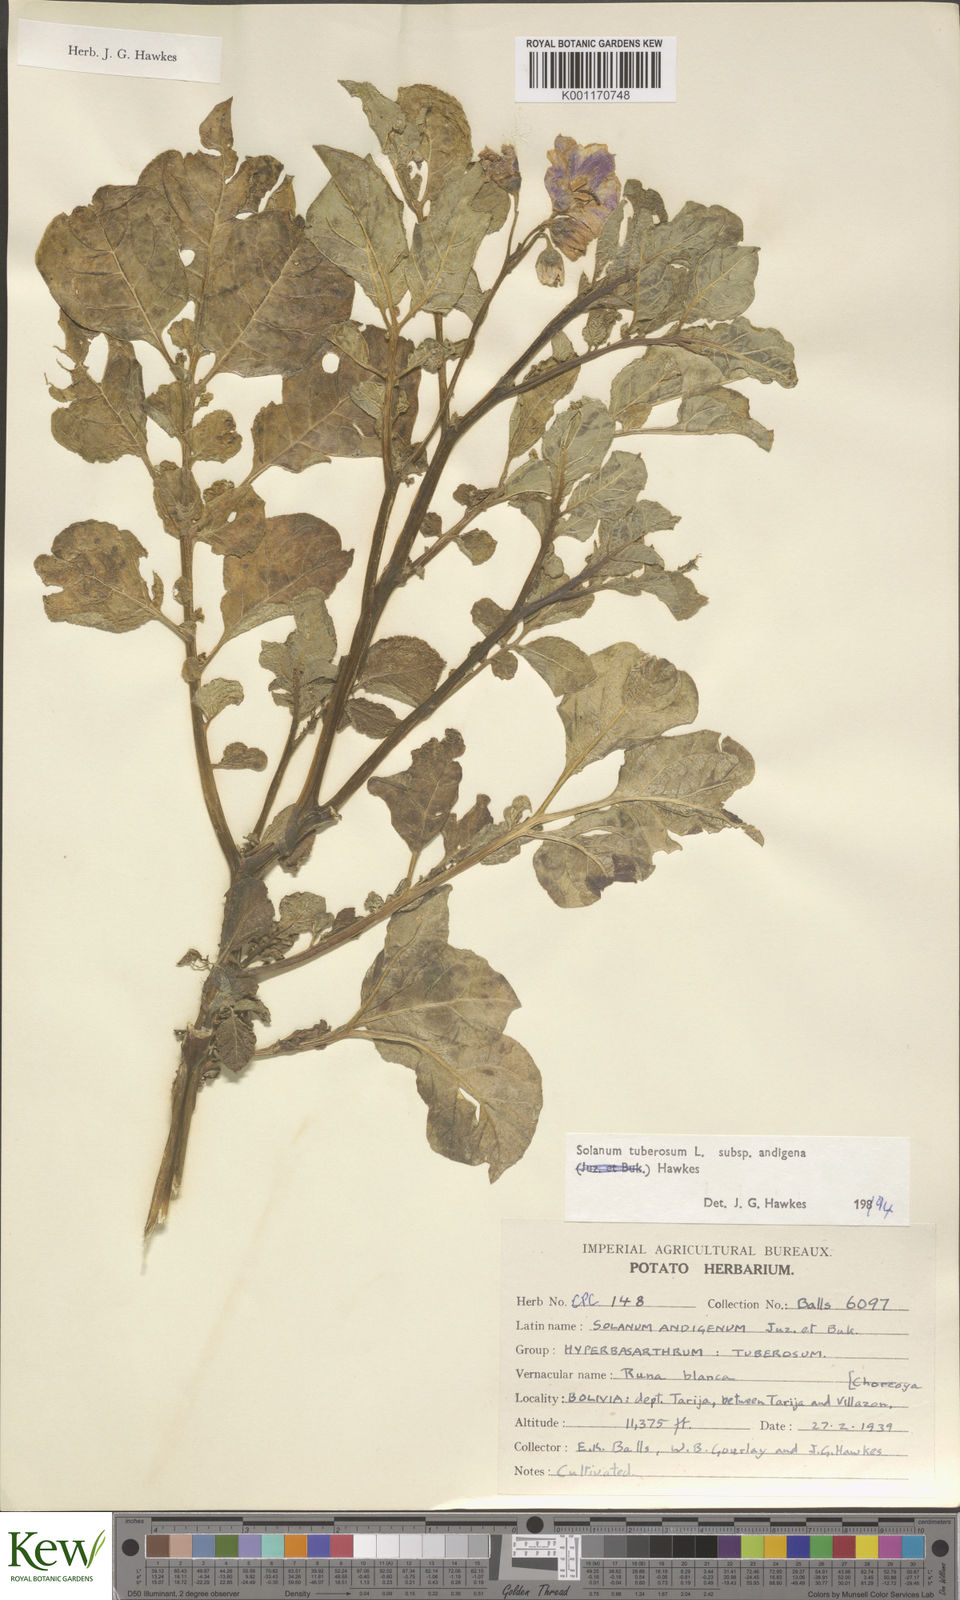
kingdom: Plantae
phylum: Tracheophyta
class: Magnoliopsida
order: Solanales
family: Solanaceae
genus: Solanum
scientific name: Solanum tuberosum
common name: Potato
